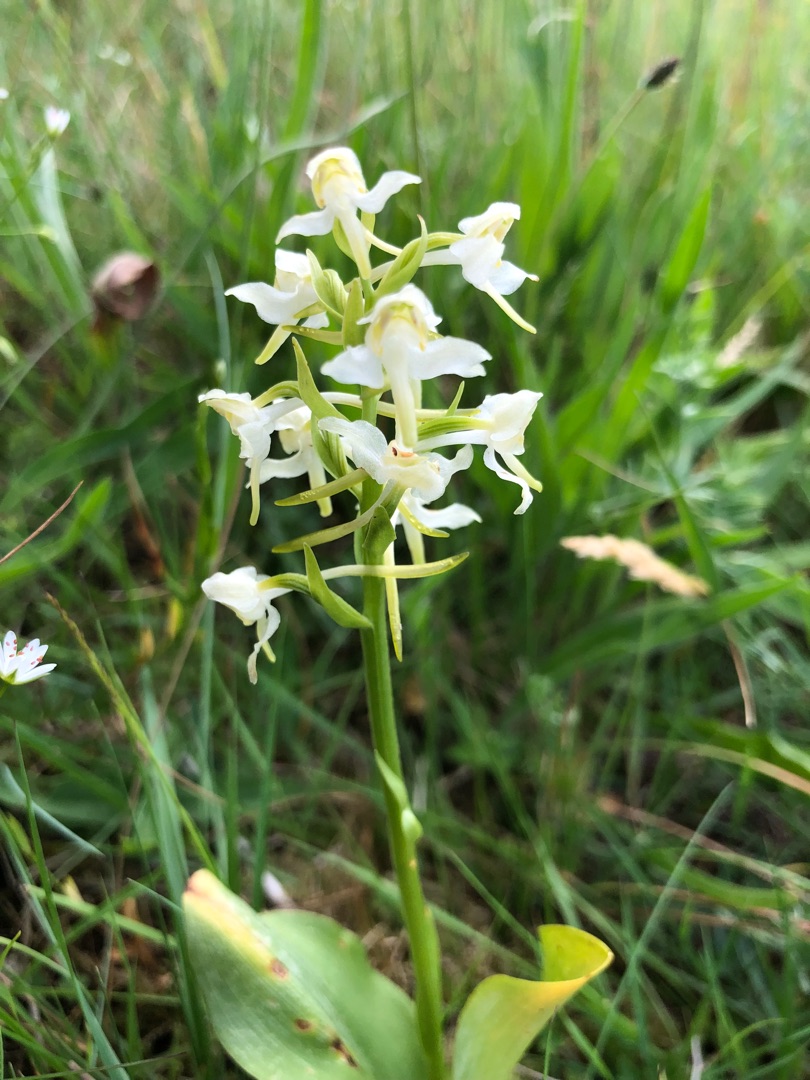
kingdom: Plantae
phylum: Tracheophyta
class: Liliopsida
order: Asparagales
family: Orchidaceae
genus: Platanthera
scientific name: Platanthera chlorantha
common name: Skov-gøgelilje
